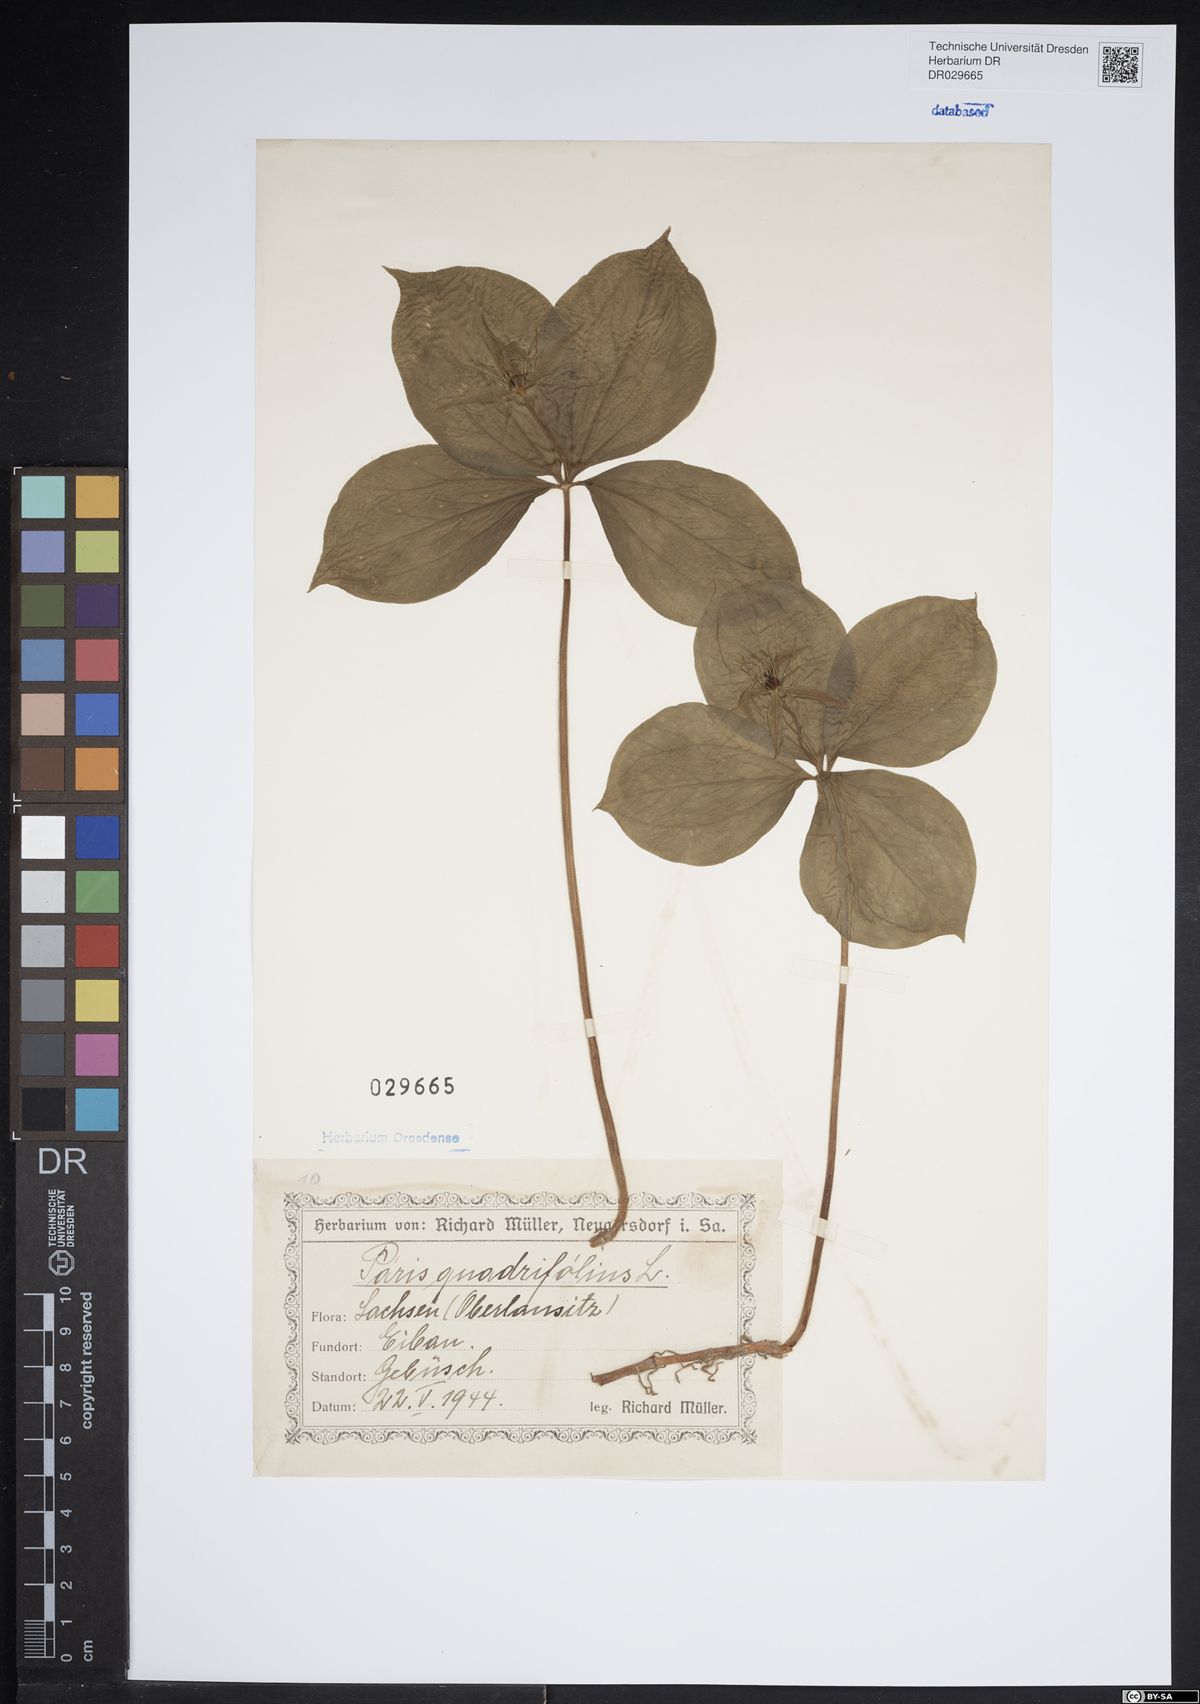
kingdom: Plantae
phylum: Tracheophyta
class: Liliopsida
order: Liliales
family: Melanthiaceae
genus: Paris
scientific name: Paris quadrifolia
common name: Herb-paris
